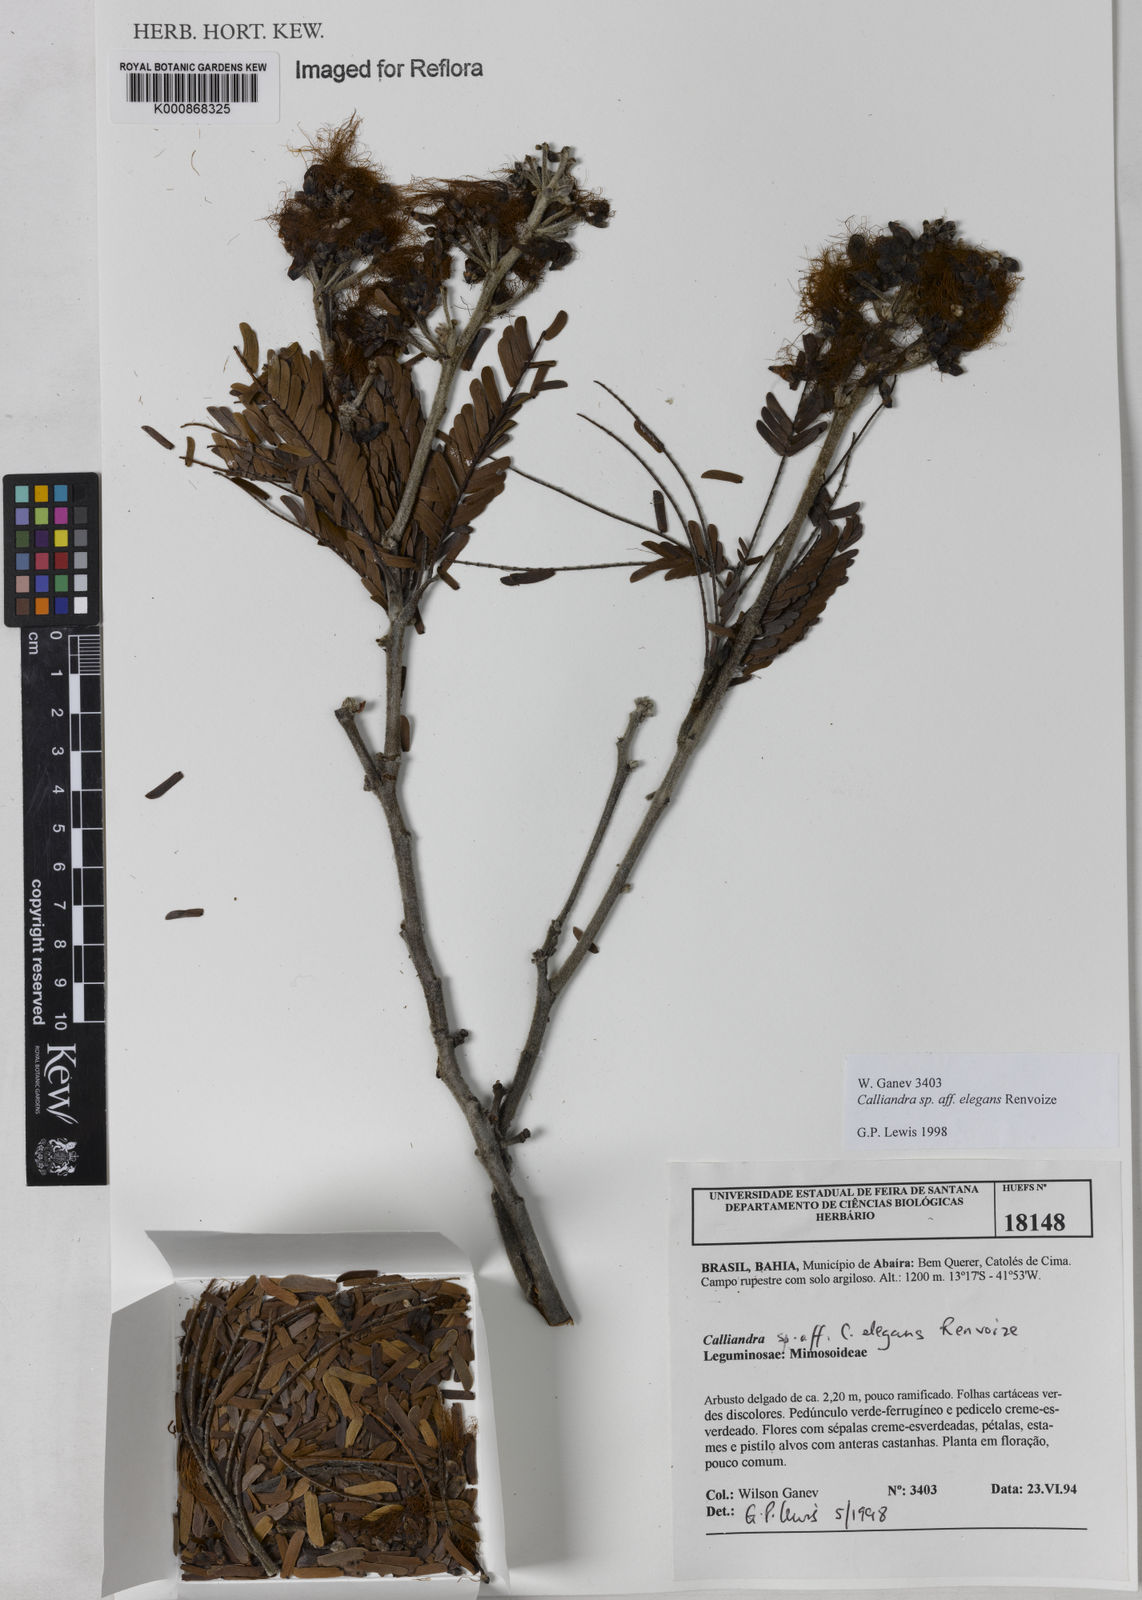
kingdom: Plantae
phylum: Tracheophyta
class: Magnoliopsida
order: Fabales
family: Fabaceae
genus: Calliandra
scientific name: Calliandra elegans
